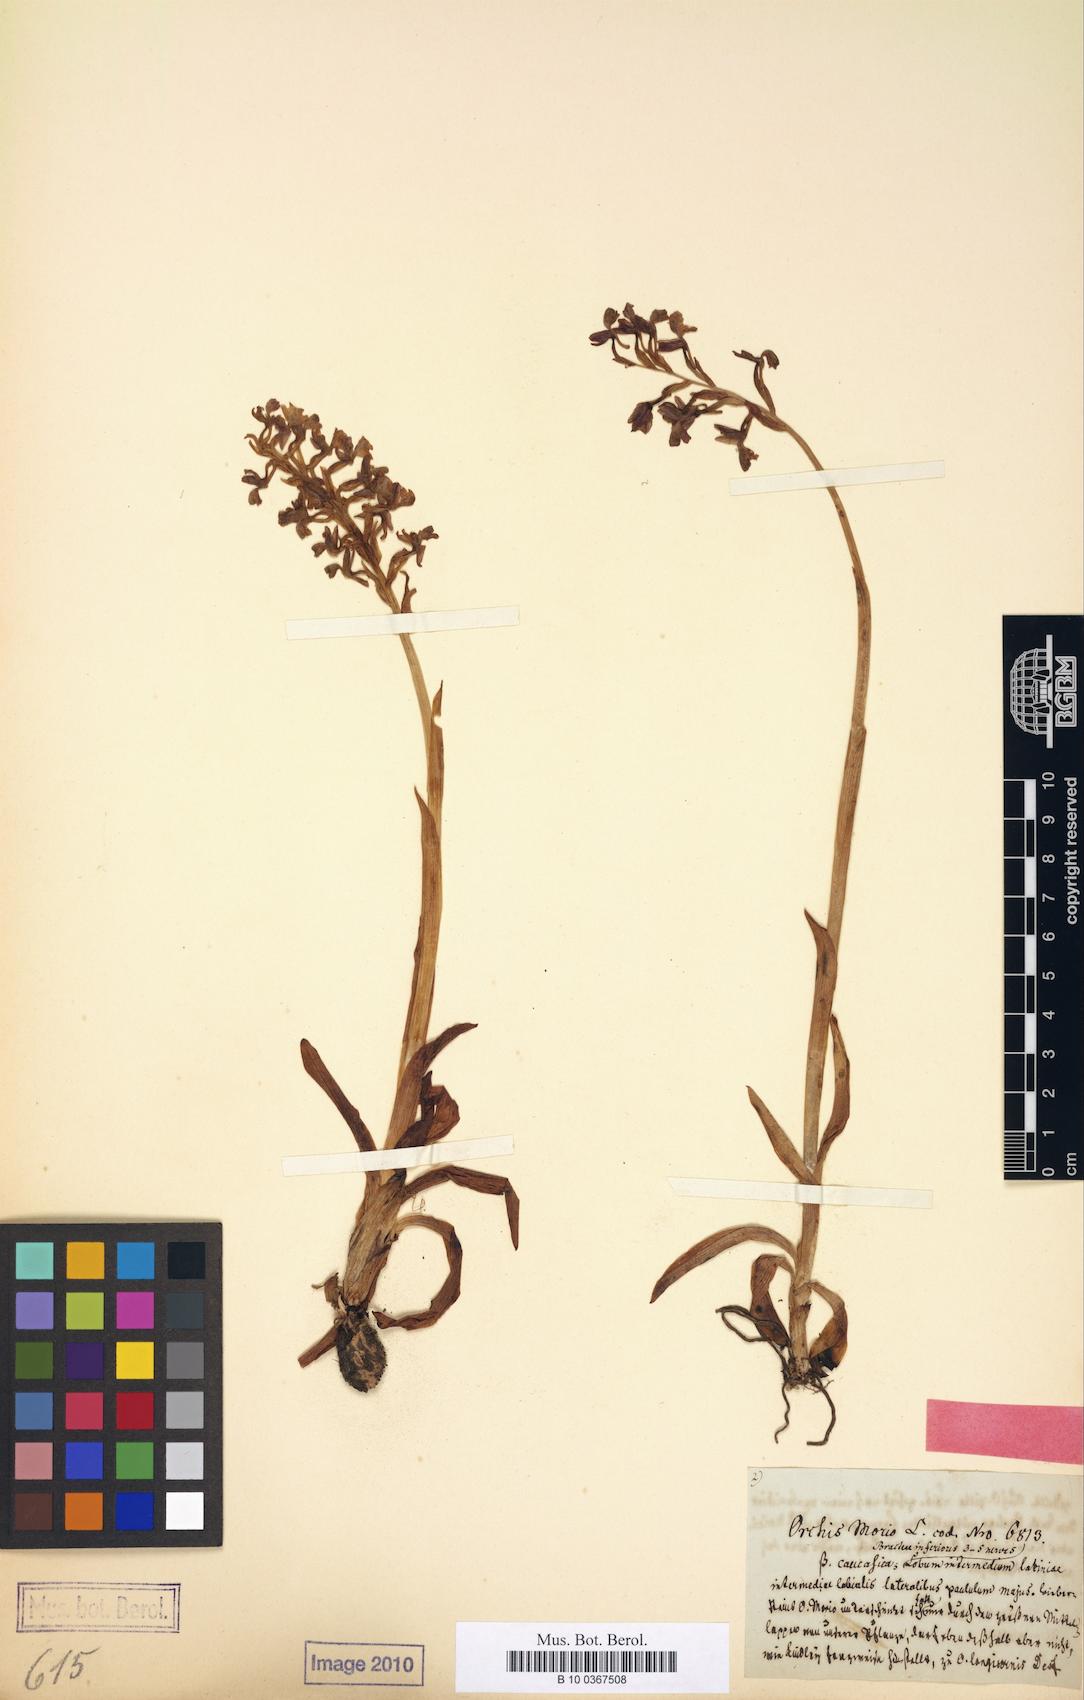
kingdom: Plantae
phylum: Tracheophyta
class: Liliopsida
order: Asparagales
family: Orchidaceae
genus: Anacamptis
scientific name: Anacamptis morio
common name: Green-winged orchid
